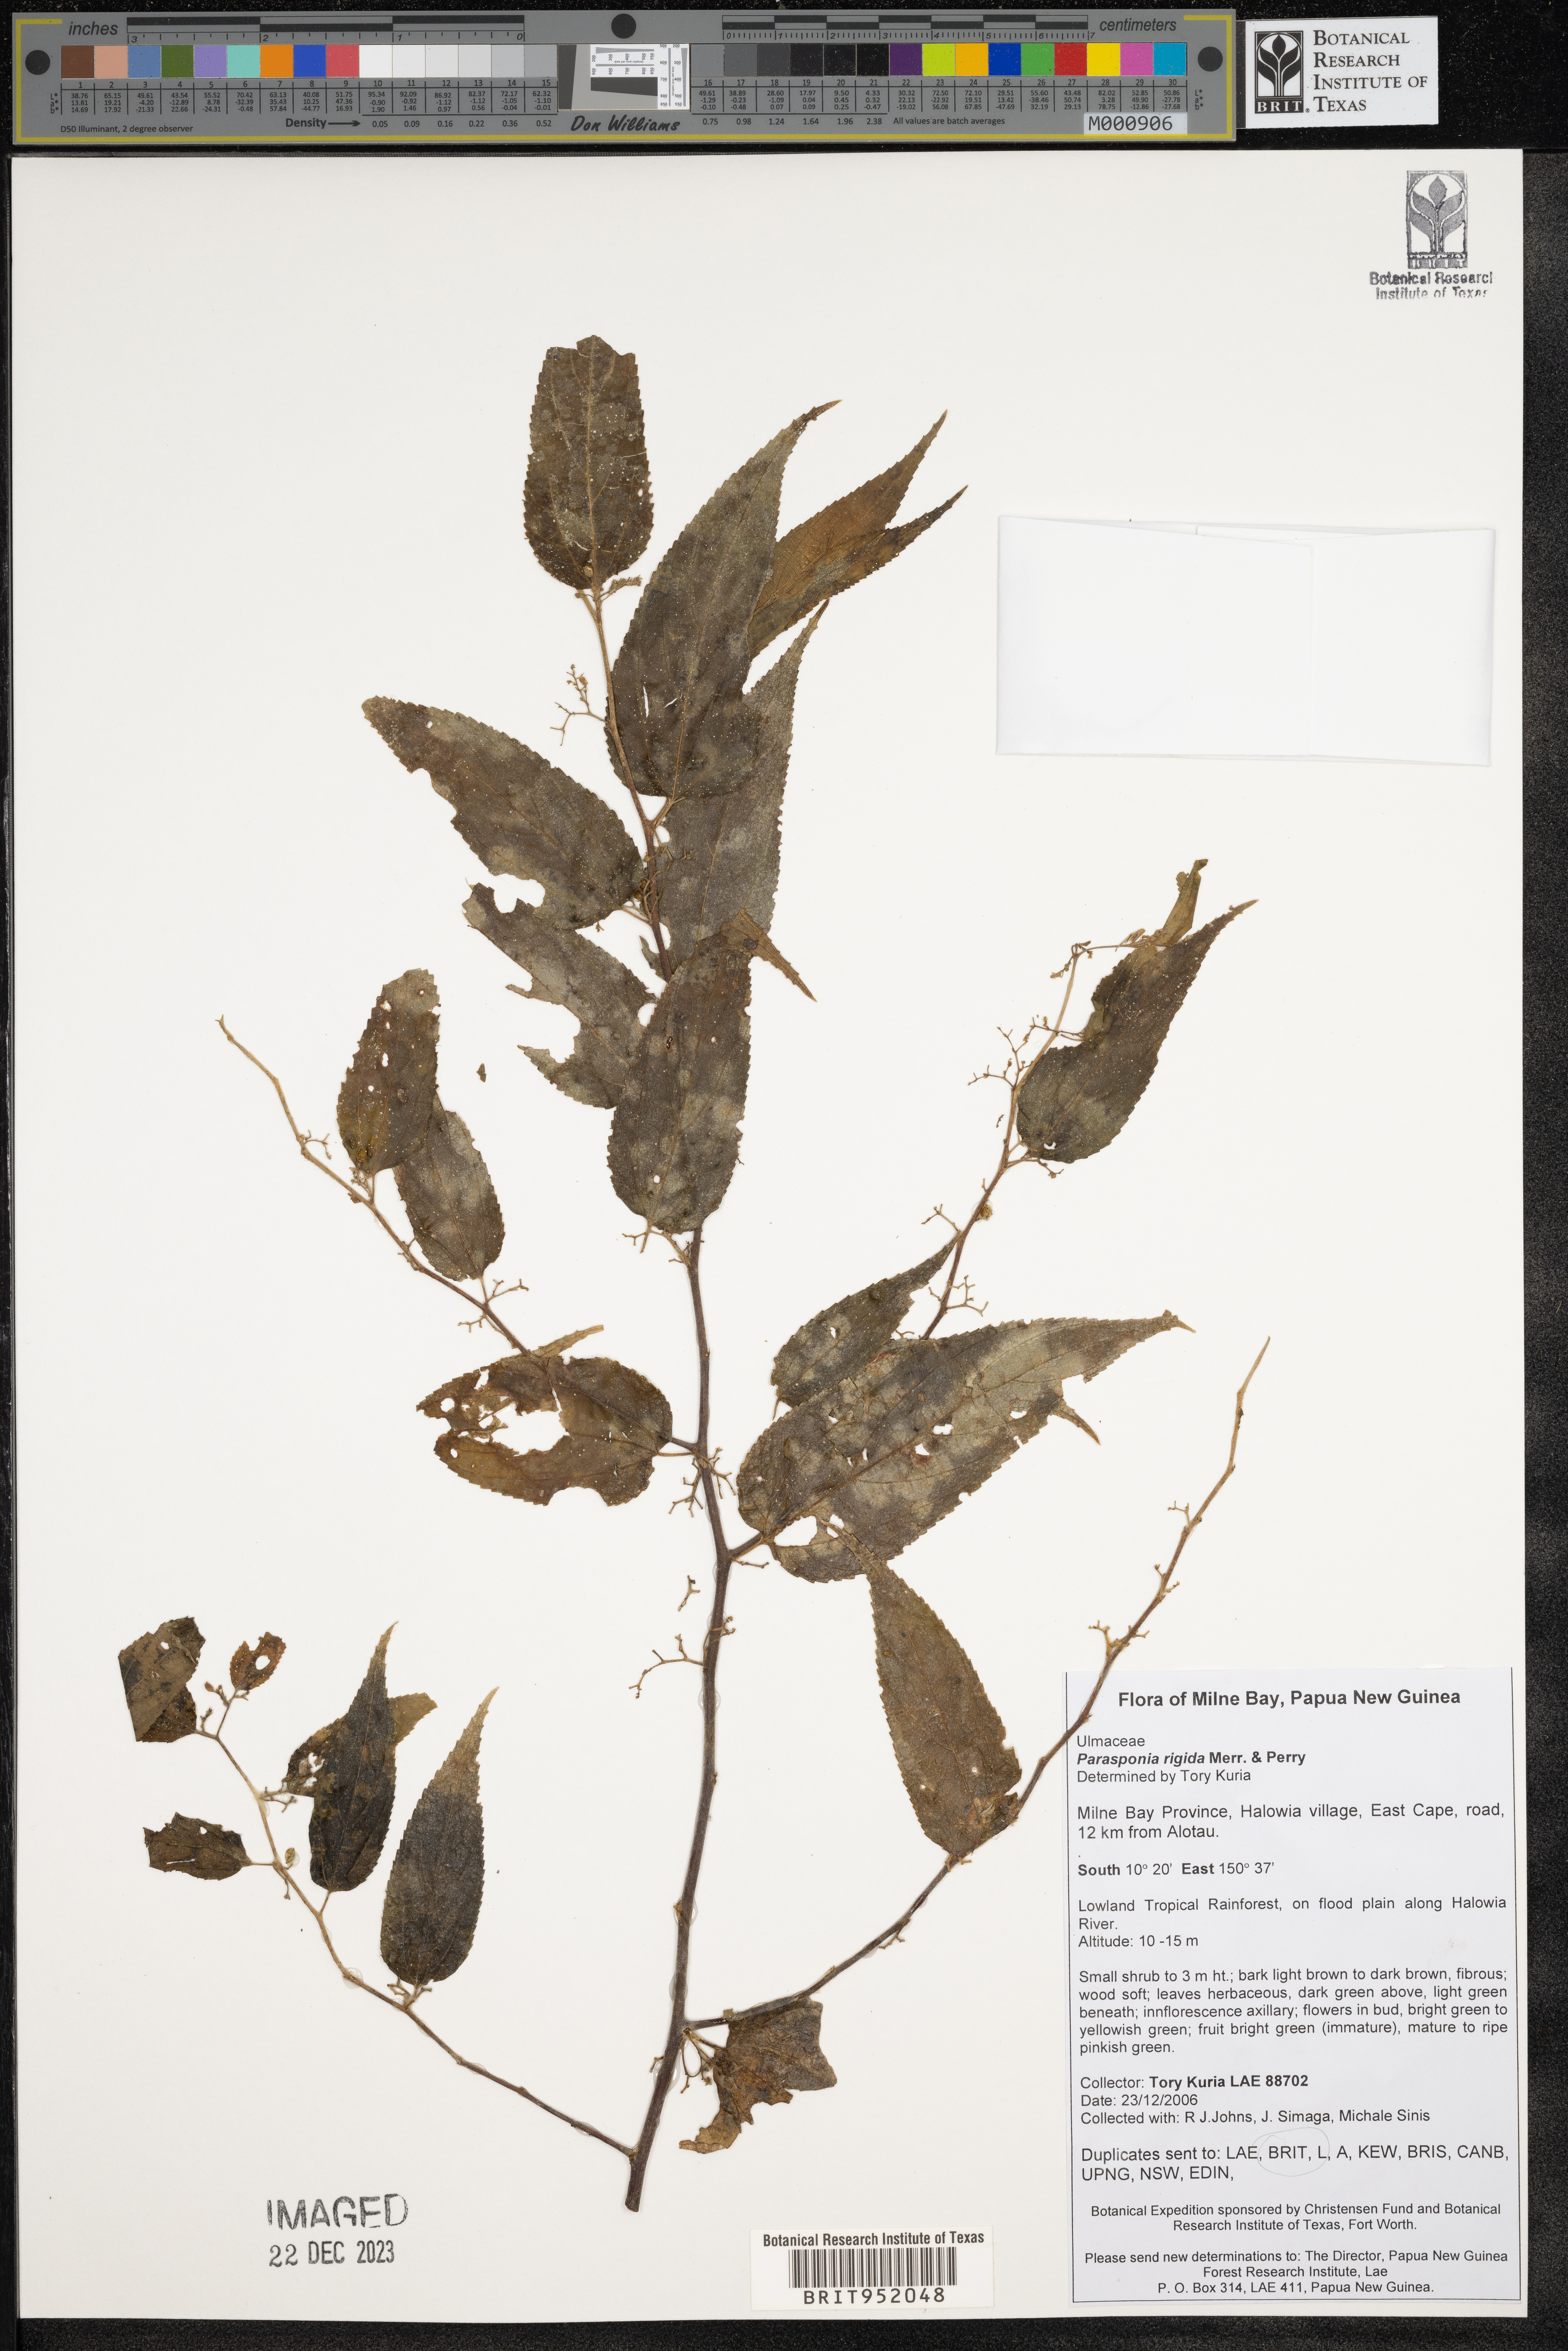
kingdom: Plantae
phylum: Tracheophyta
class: Magnoliopsida
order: Rosales
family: Cannabaceae
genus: Trema
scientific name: Trema
